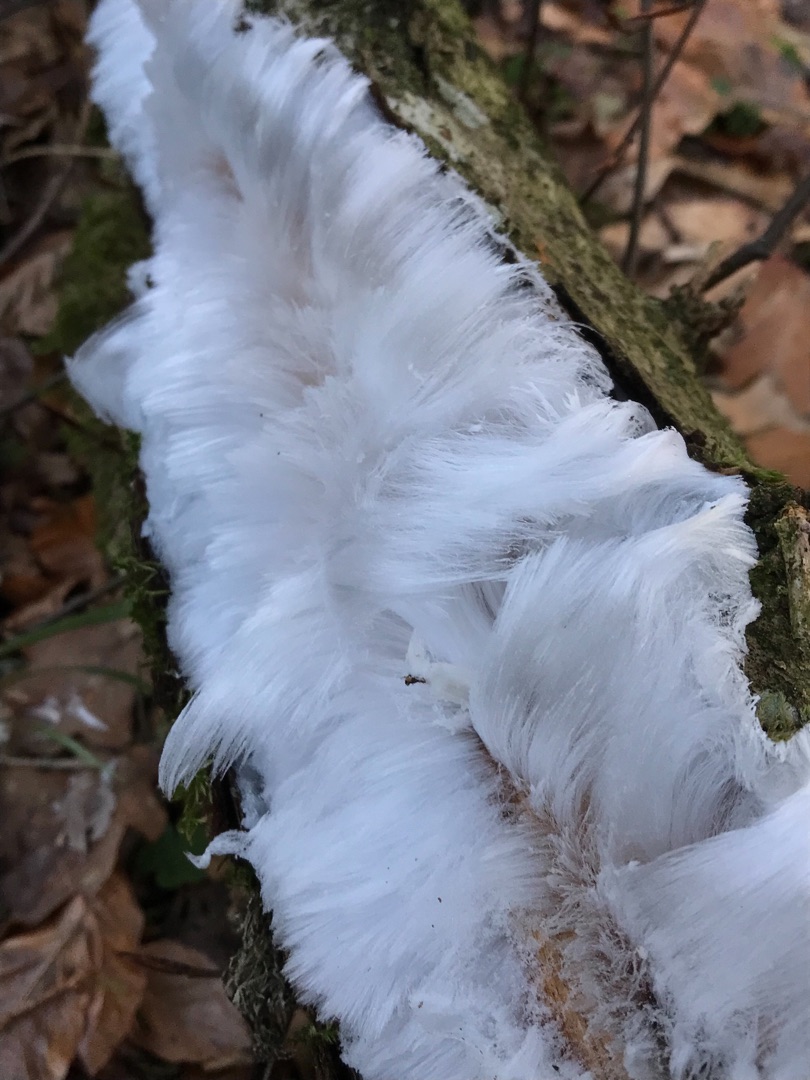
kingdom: Fungi
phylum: Basidiomycota
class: Tremellomycetes
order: Tremellales
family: Exidiaceae
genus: Exidiopsis
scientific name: Exidiopsis effusa
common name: Smuk bævrehinde
